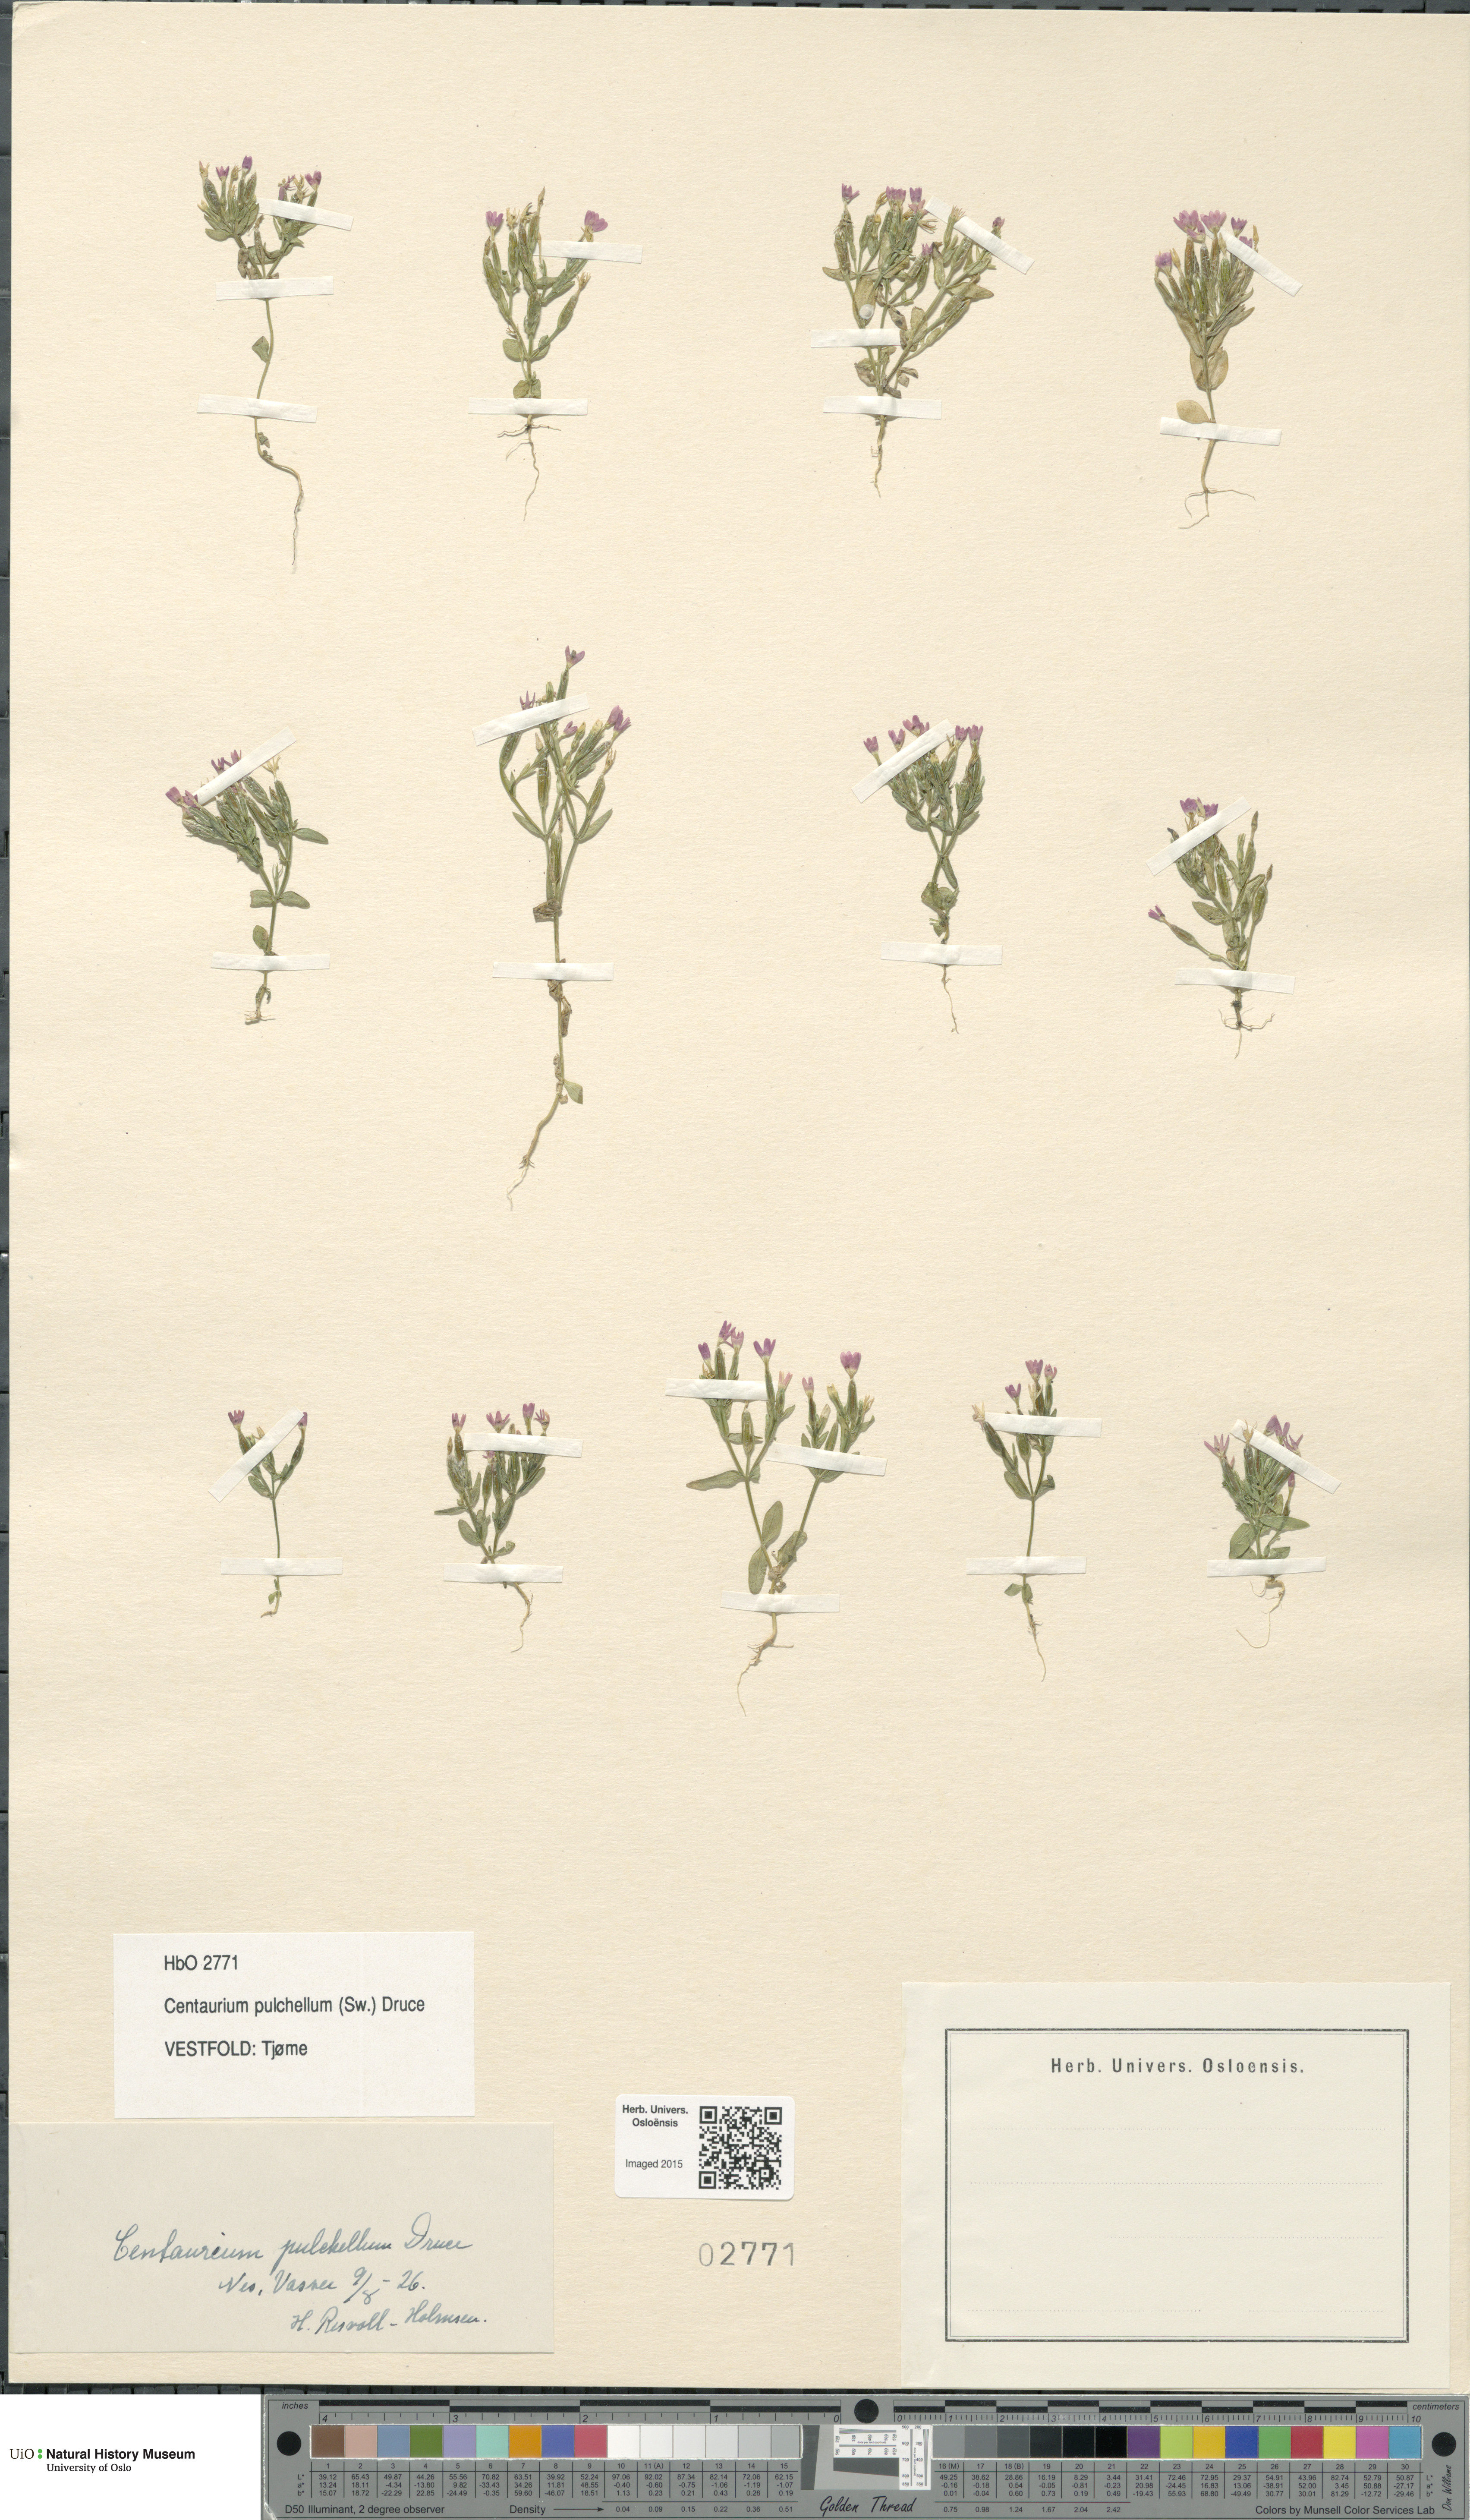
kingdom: Plantae
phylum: Tracheophyta
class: Magnoliopsida
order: Gentianales
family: Gentianaceae
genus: Centaurium
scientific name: Centaurium pulchellum
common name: Lesser centaury
